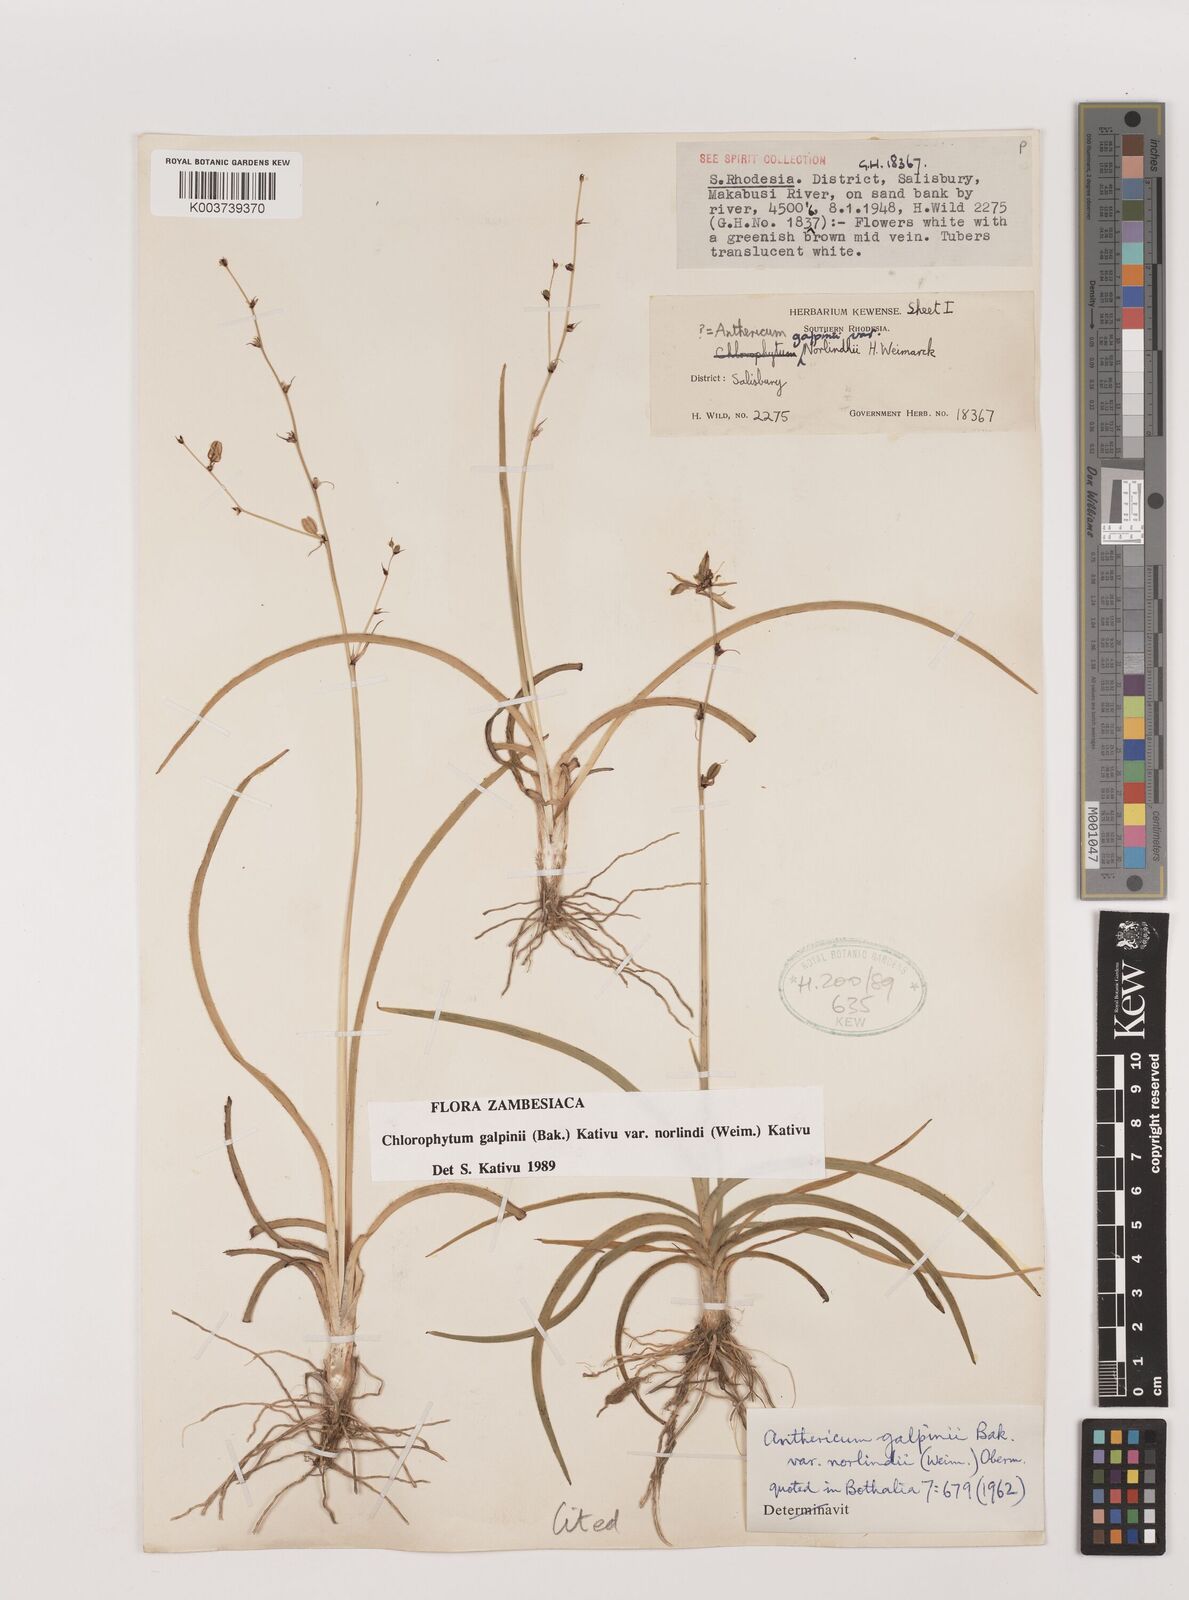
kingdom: Plantae
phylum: Tracheophyta
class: Liliopsida
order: Asparagales
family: Asparagaceae
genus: Chlorophytum
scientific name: Chlorophytum galpinii
